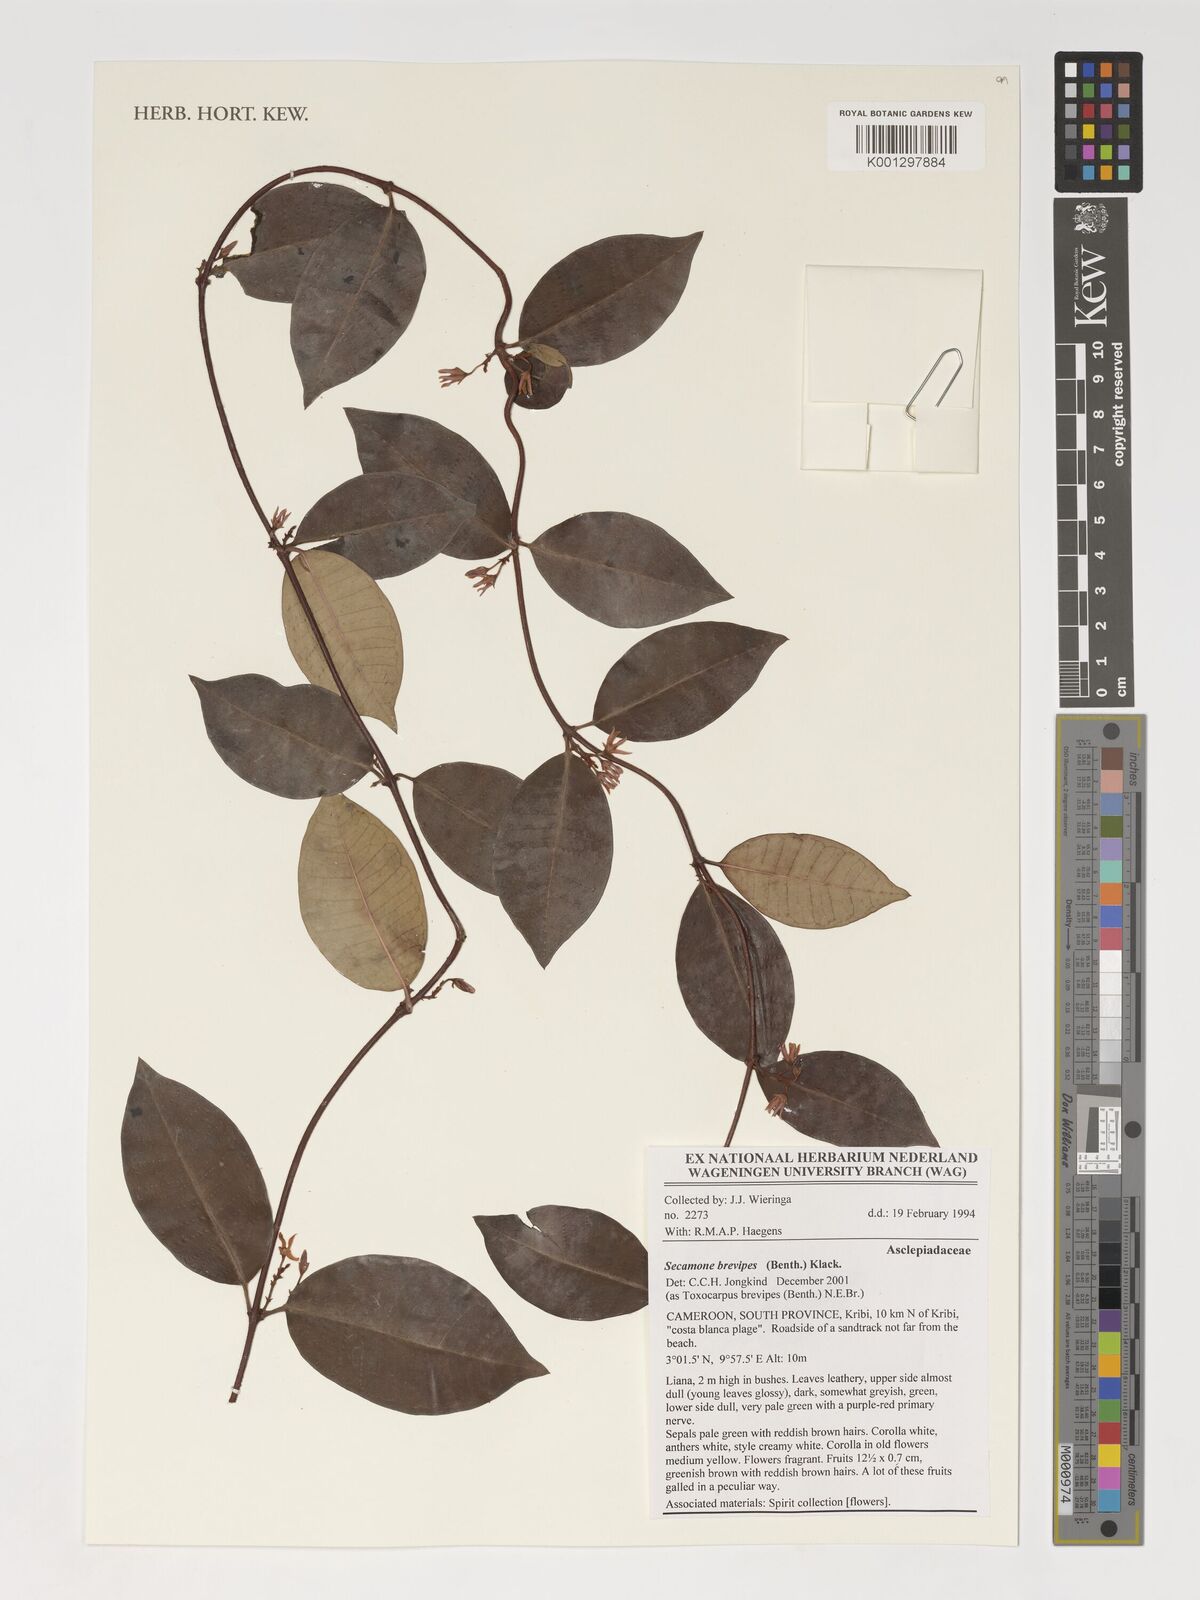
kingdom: Plantae
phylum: Tracheophyta
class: Magnoliopsida
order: Gentianales
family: Apocynaceae
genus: Secamone
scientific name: Secamone brevipes
